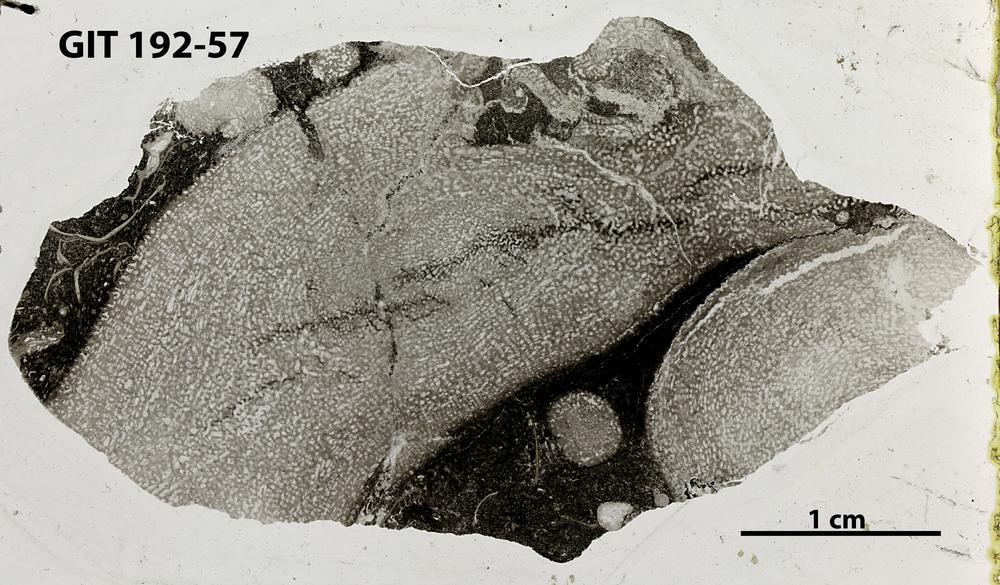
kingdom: Animalia
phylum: Porifera
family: Pseudolabechiidae
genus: Vikingia
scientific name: Vikingia
